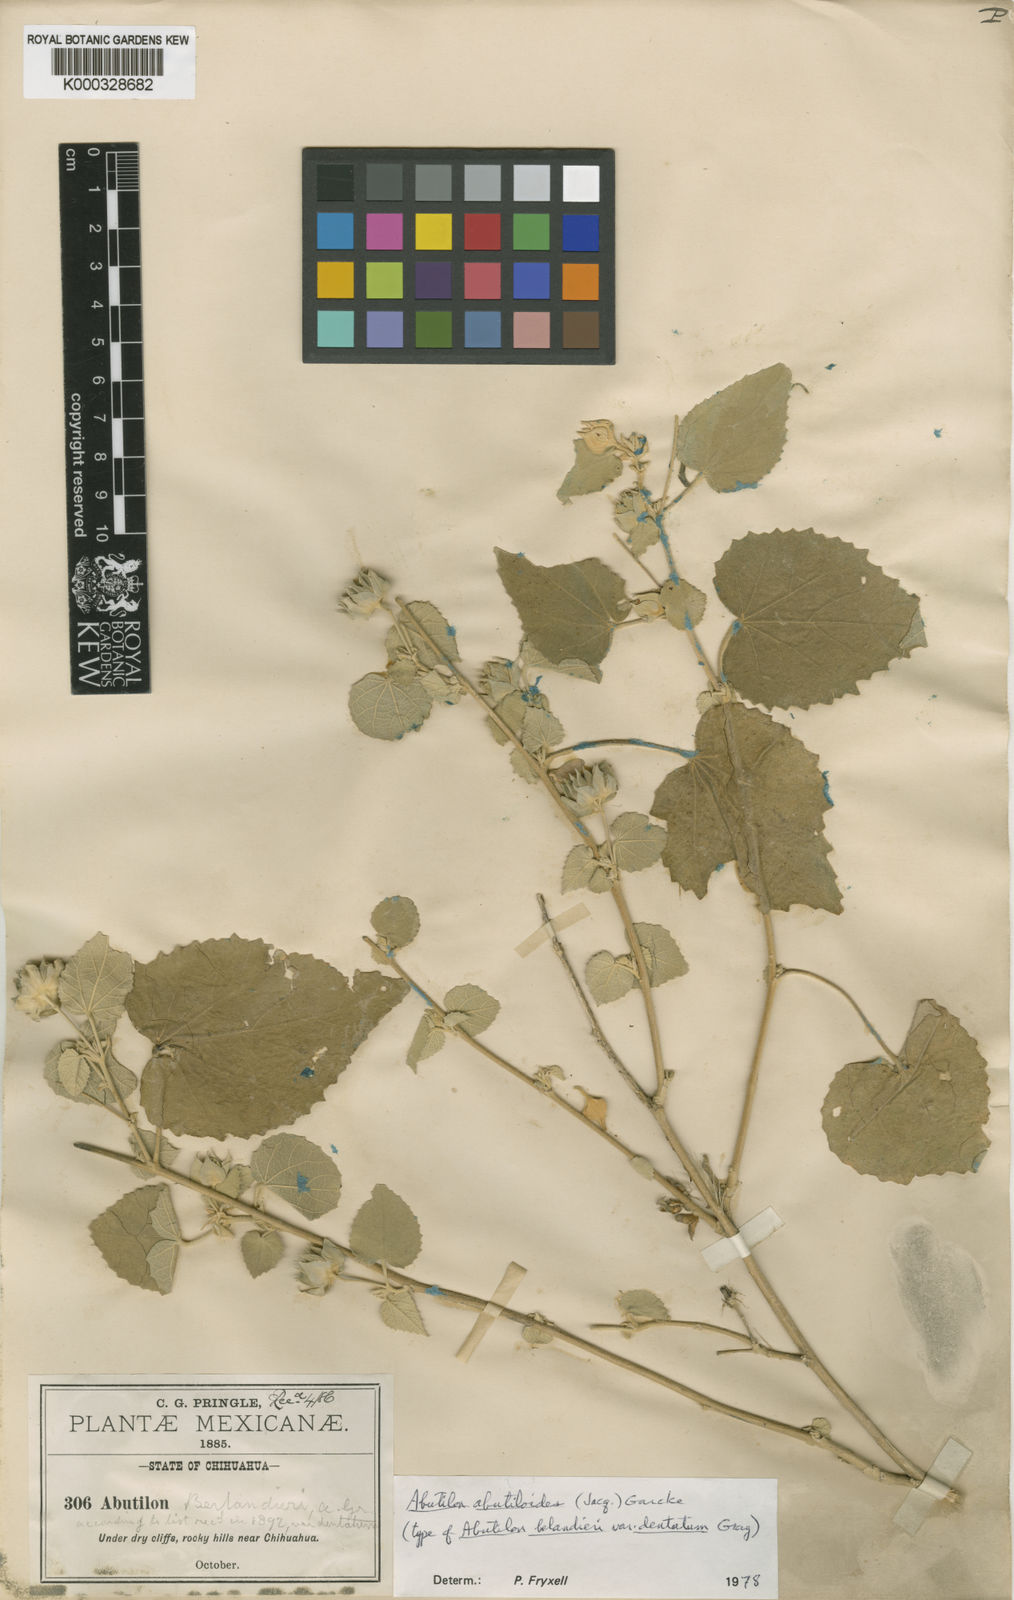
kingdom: Plantae
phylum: Tracheophyta
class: Magnoliopsida
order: Malvales
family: Malvaceae
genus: Abutilon
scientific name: Abutilon abutiloides
